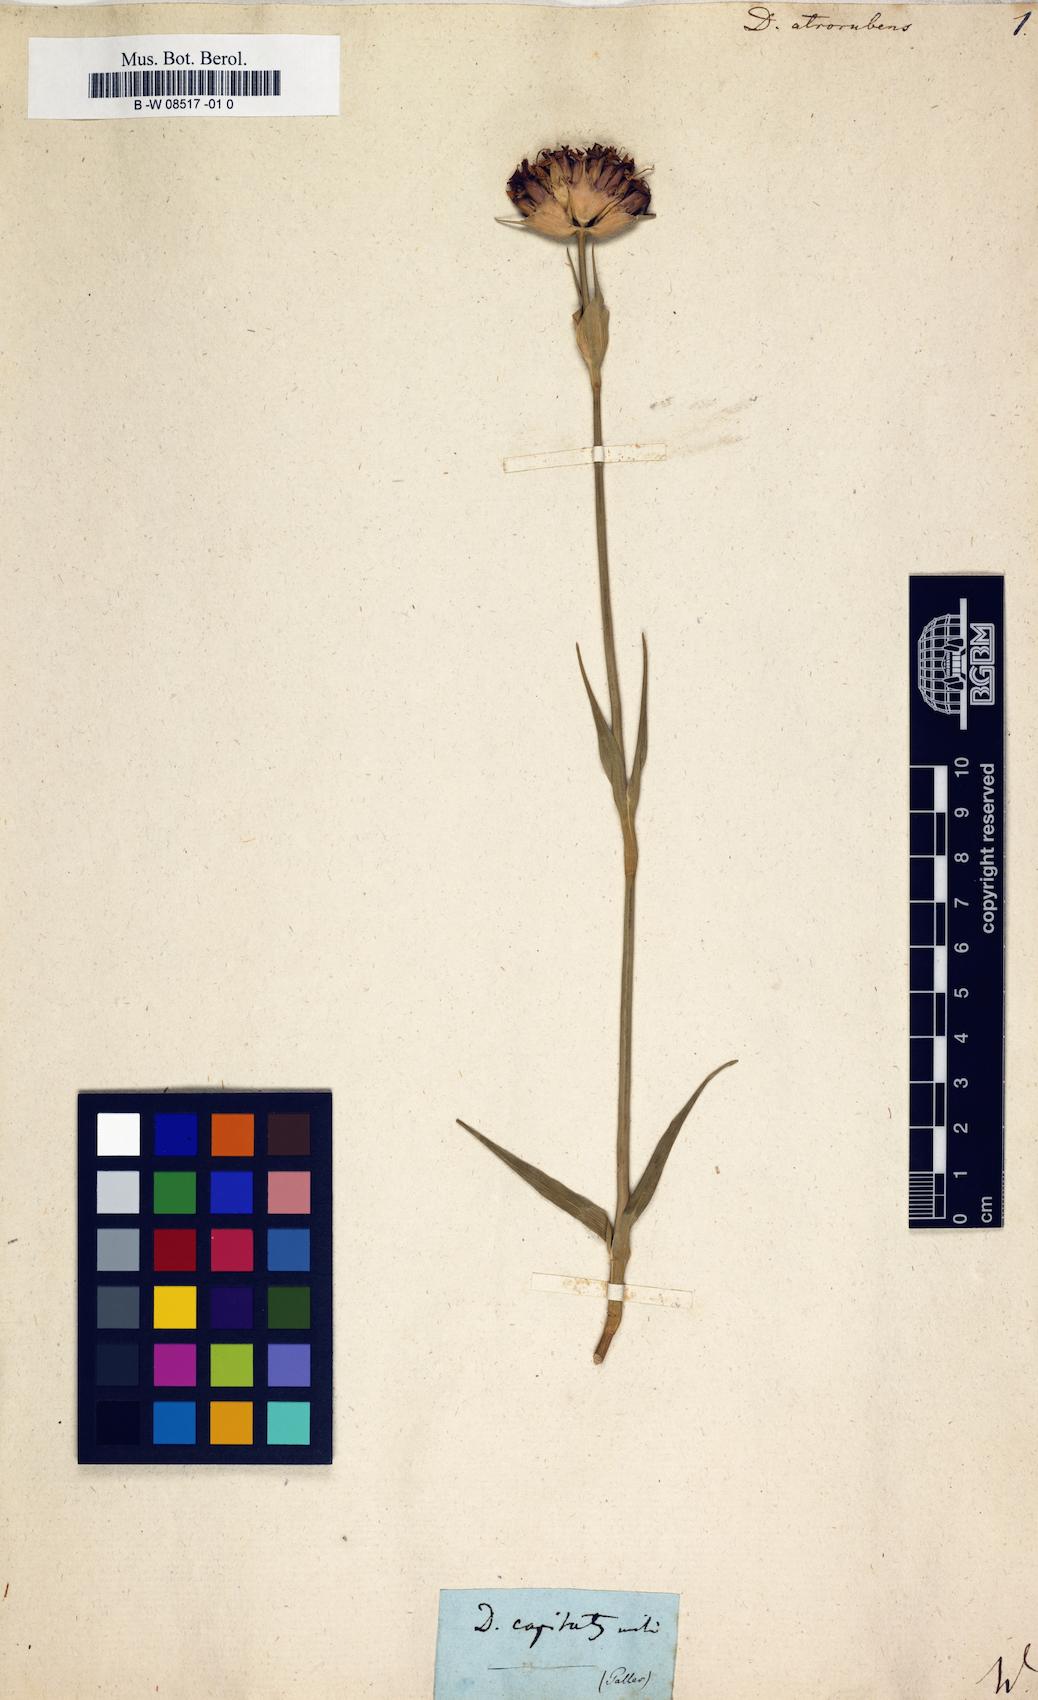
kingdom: Plantae
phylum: Tracheophyta
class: Magnoliopsida
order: Caryophyllales
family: Caryophyllaceae
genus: Dianthus
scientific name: Dianthus atrorubens
